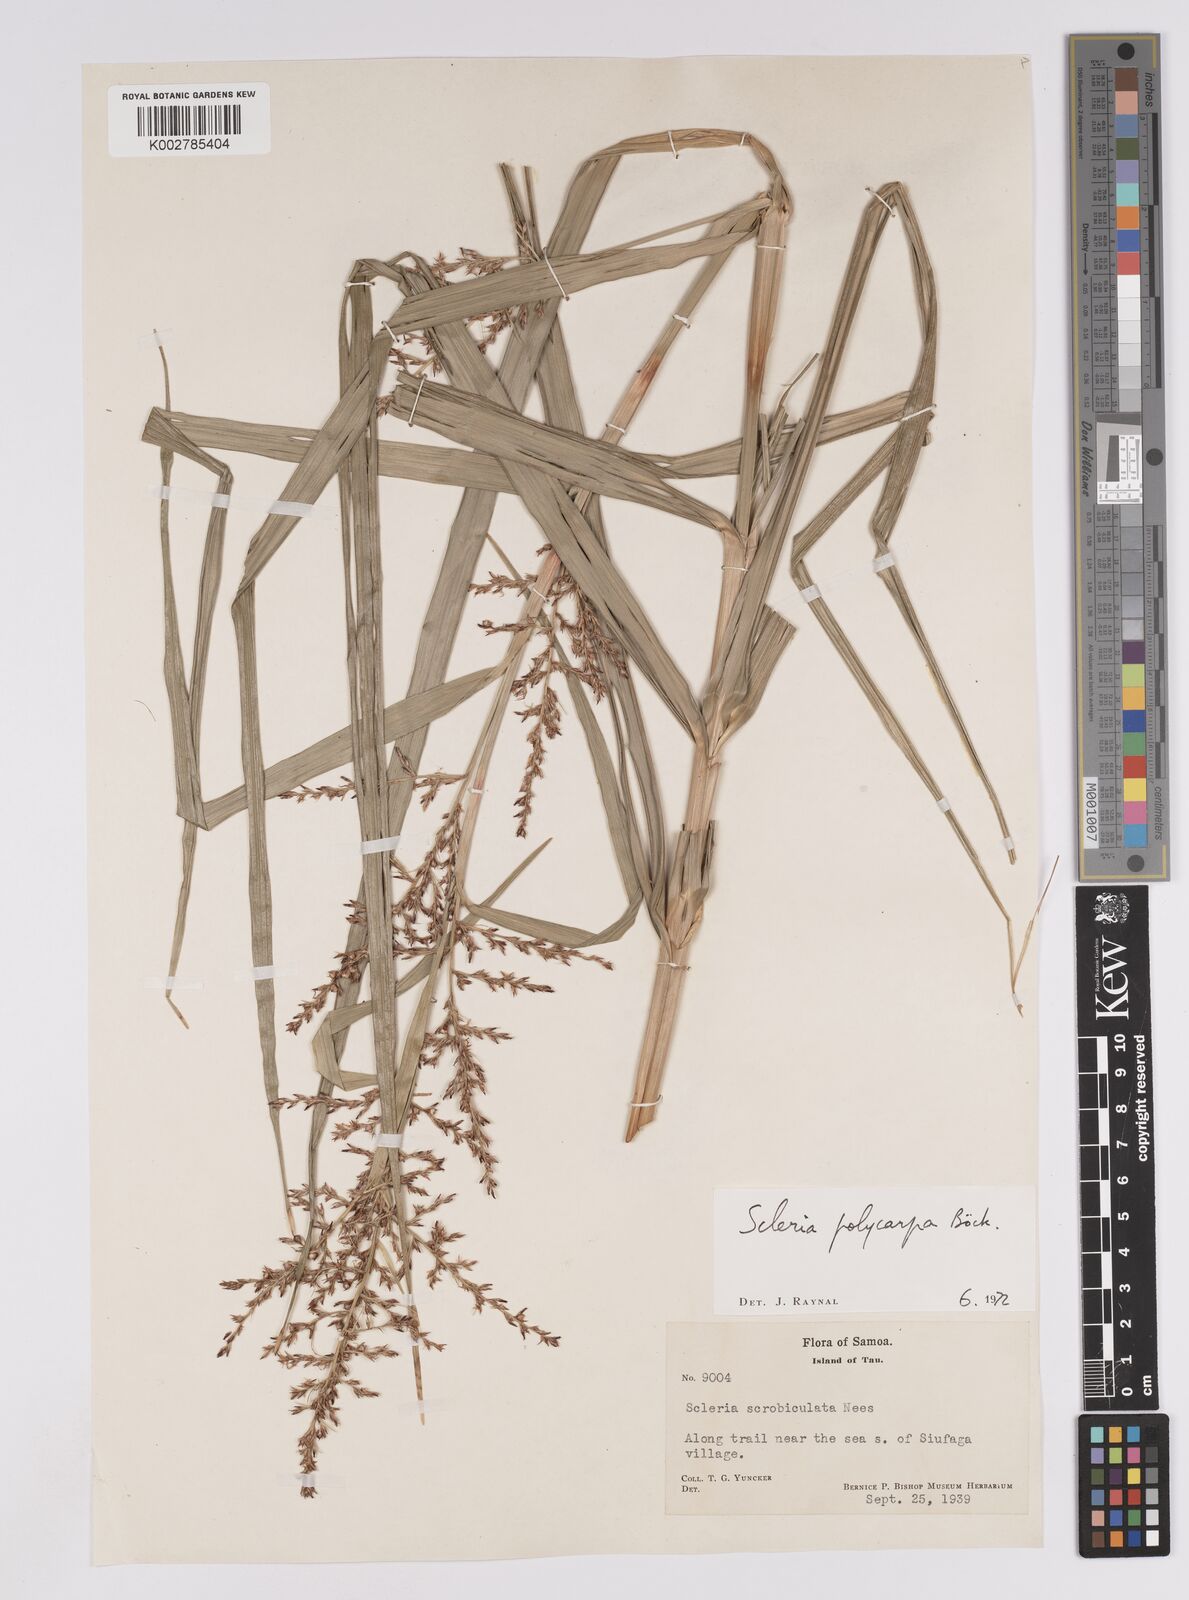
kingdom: Plantae
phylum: Tracheophyta
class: Liliopsida
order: Poales
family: Cyperaceae
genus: Scleria
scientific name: Scleria polycarpa
